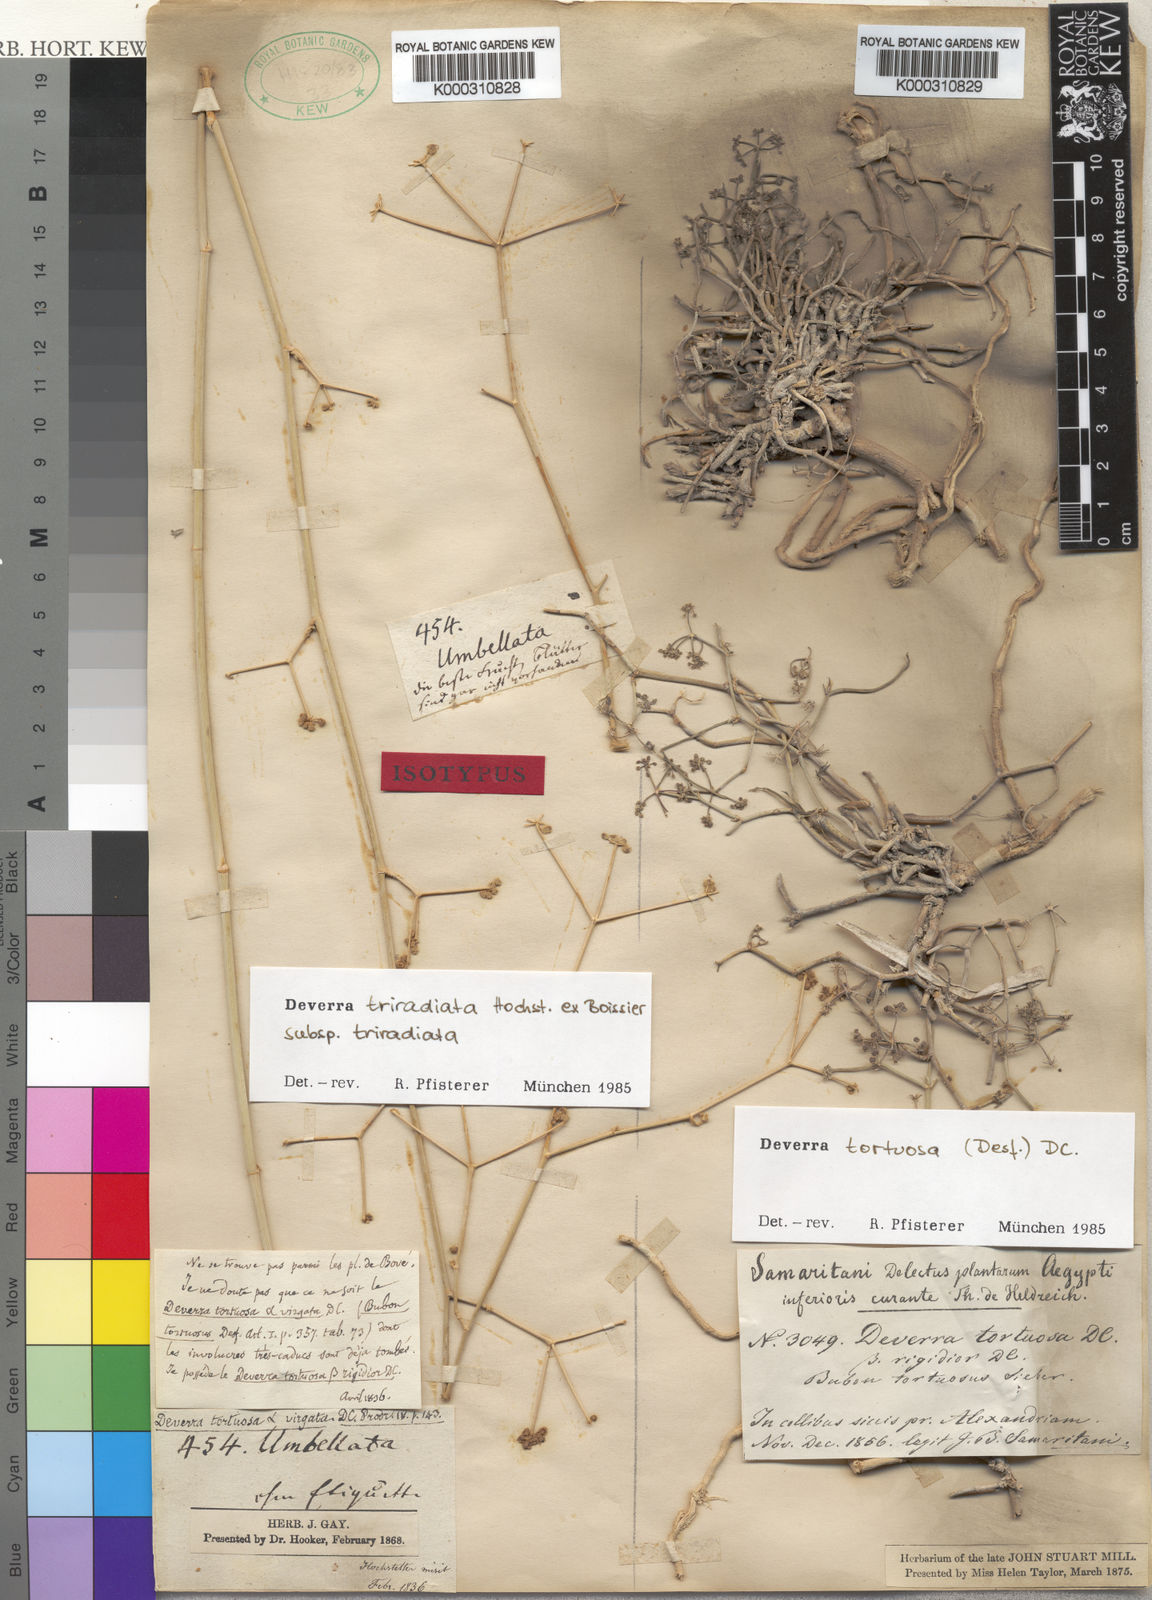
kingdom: Plantae
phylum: Tracheophyta
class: Magnoliopsida
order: Apiales
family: Apiaceae
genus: Deverra
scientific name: Deverra
